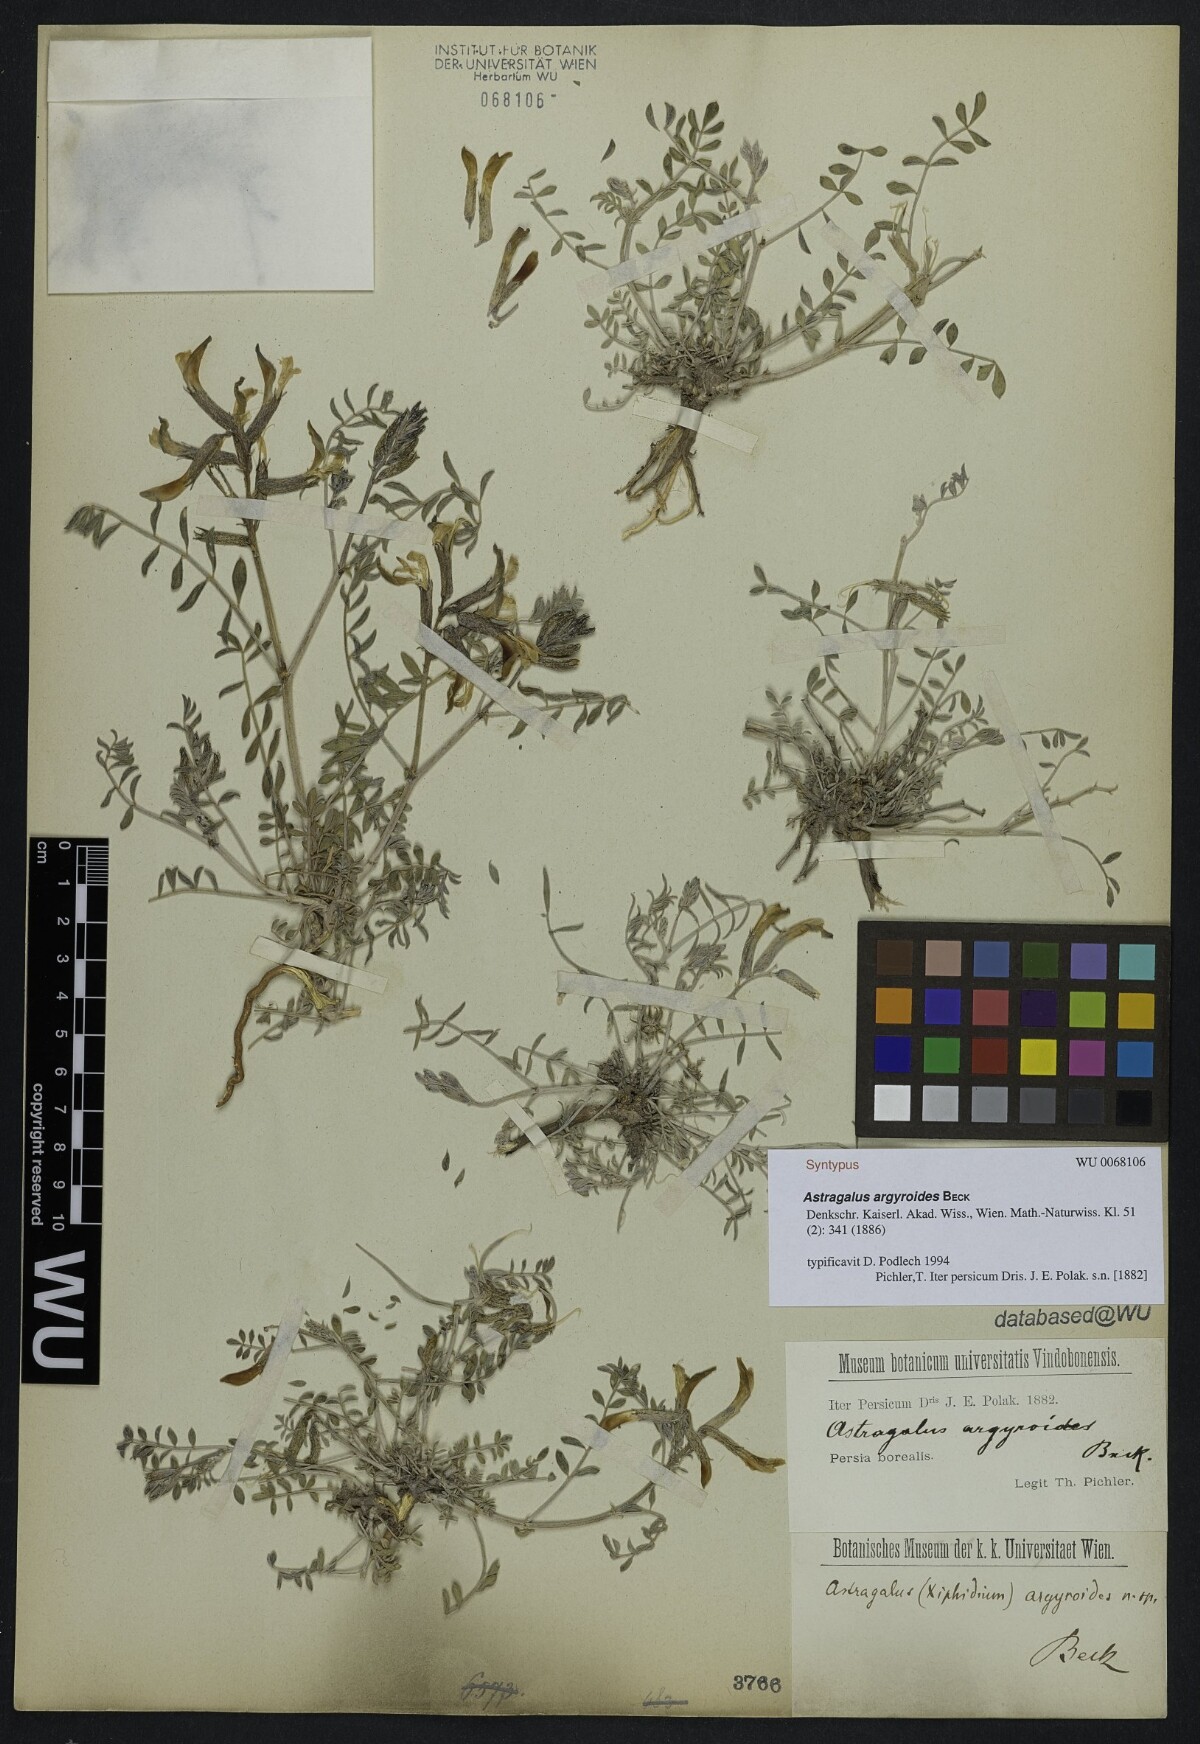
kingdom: Plantae
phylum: Tracheophyta
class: Magnoliopsida
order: Fabales
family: Fabaceae
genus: Astragalus
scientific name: Astragalus argyroides
